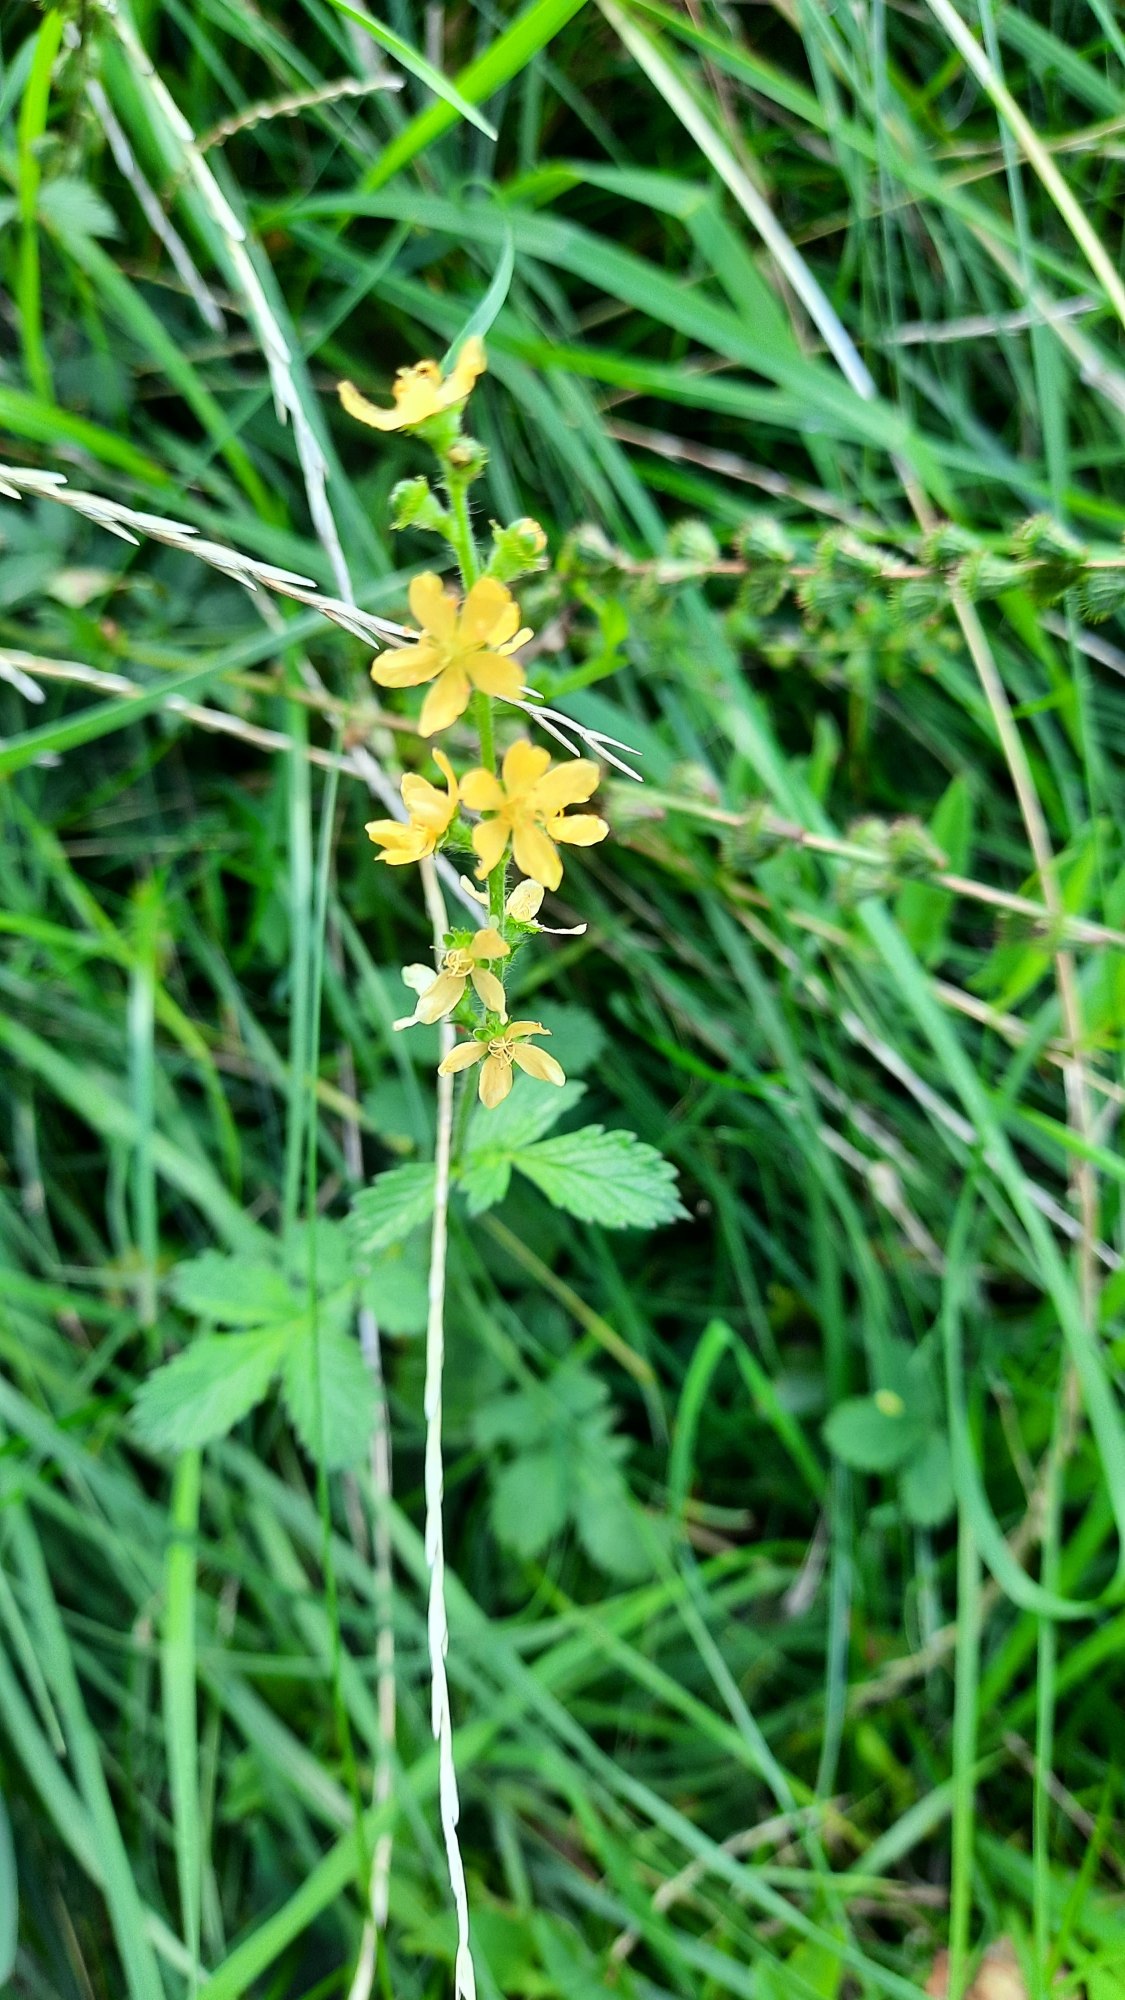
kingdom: Plantae
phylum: Tracheophyta
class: Magnoliopsida
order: Rosales
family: Rosaceae
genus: Agrimonia
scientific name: Agrimonia eupatoria
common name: Almindelig agermåne
